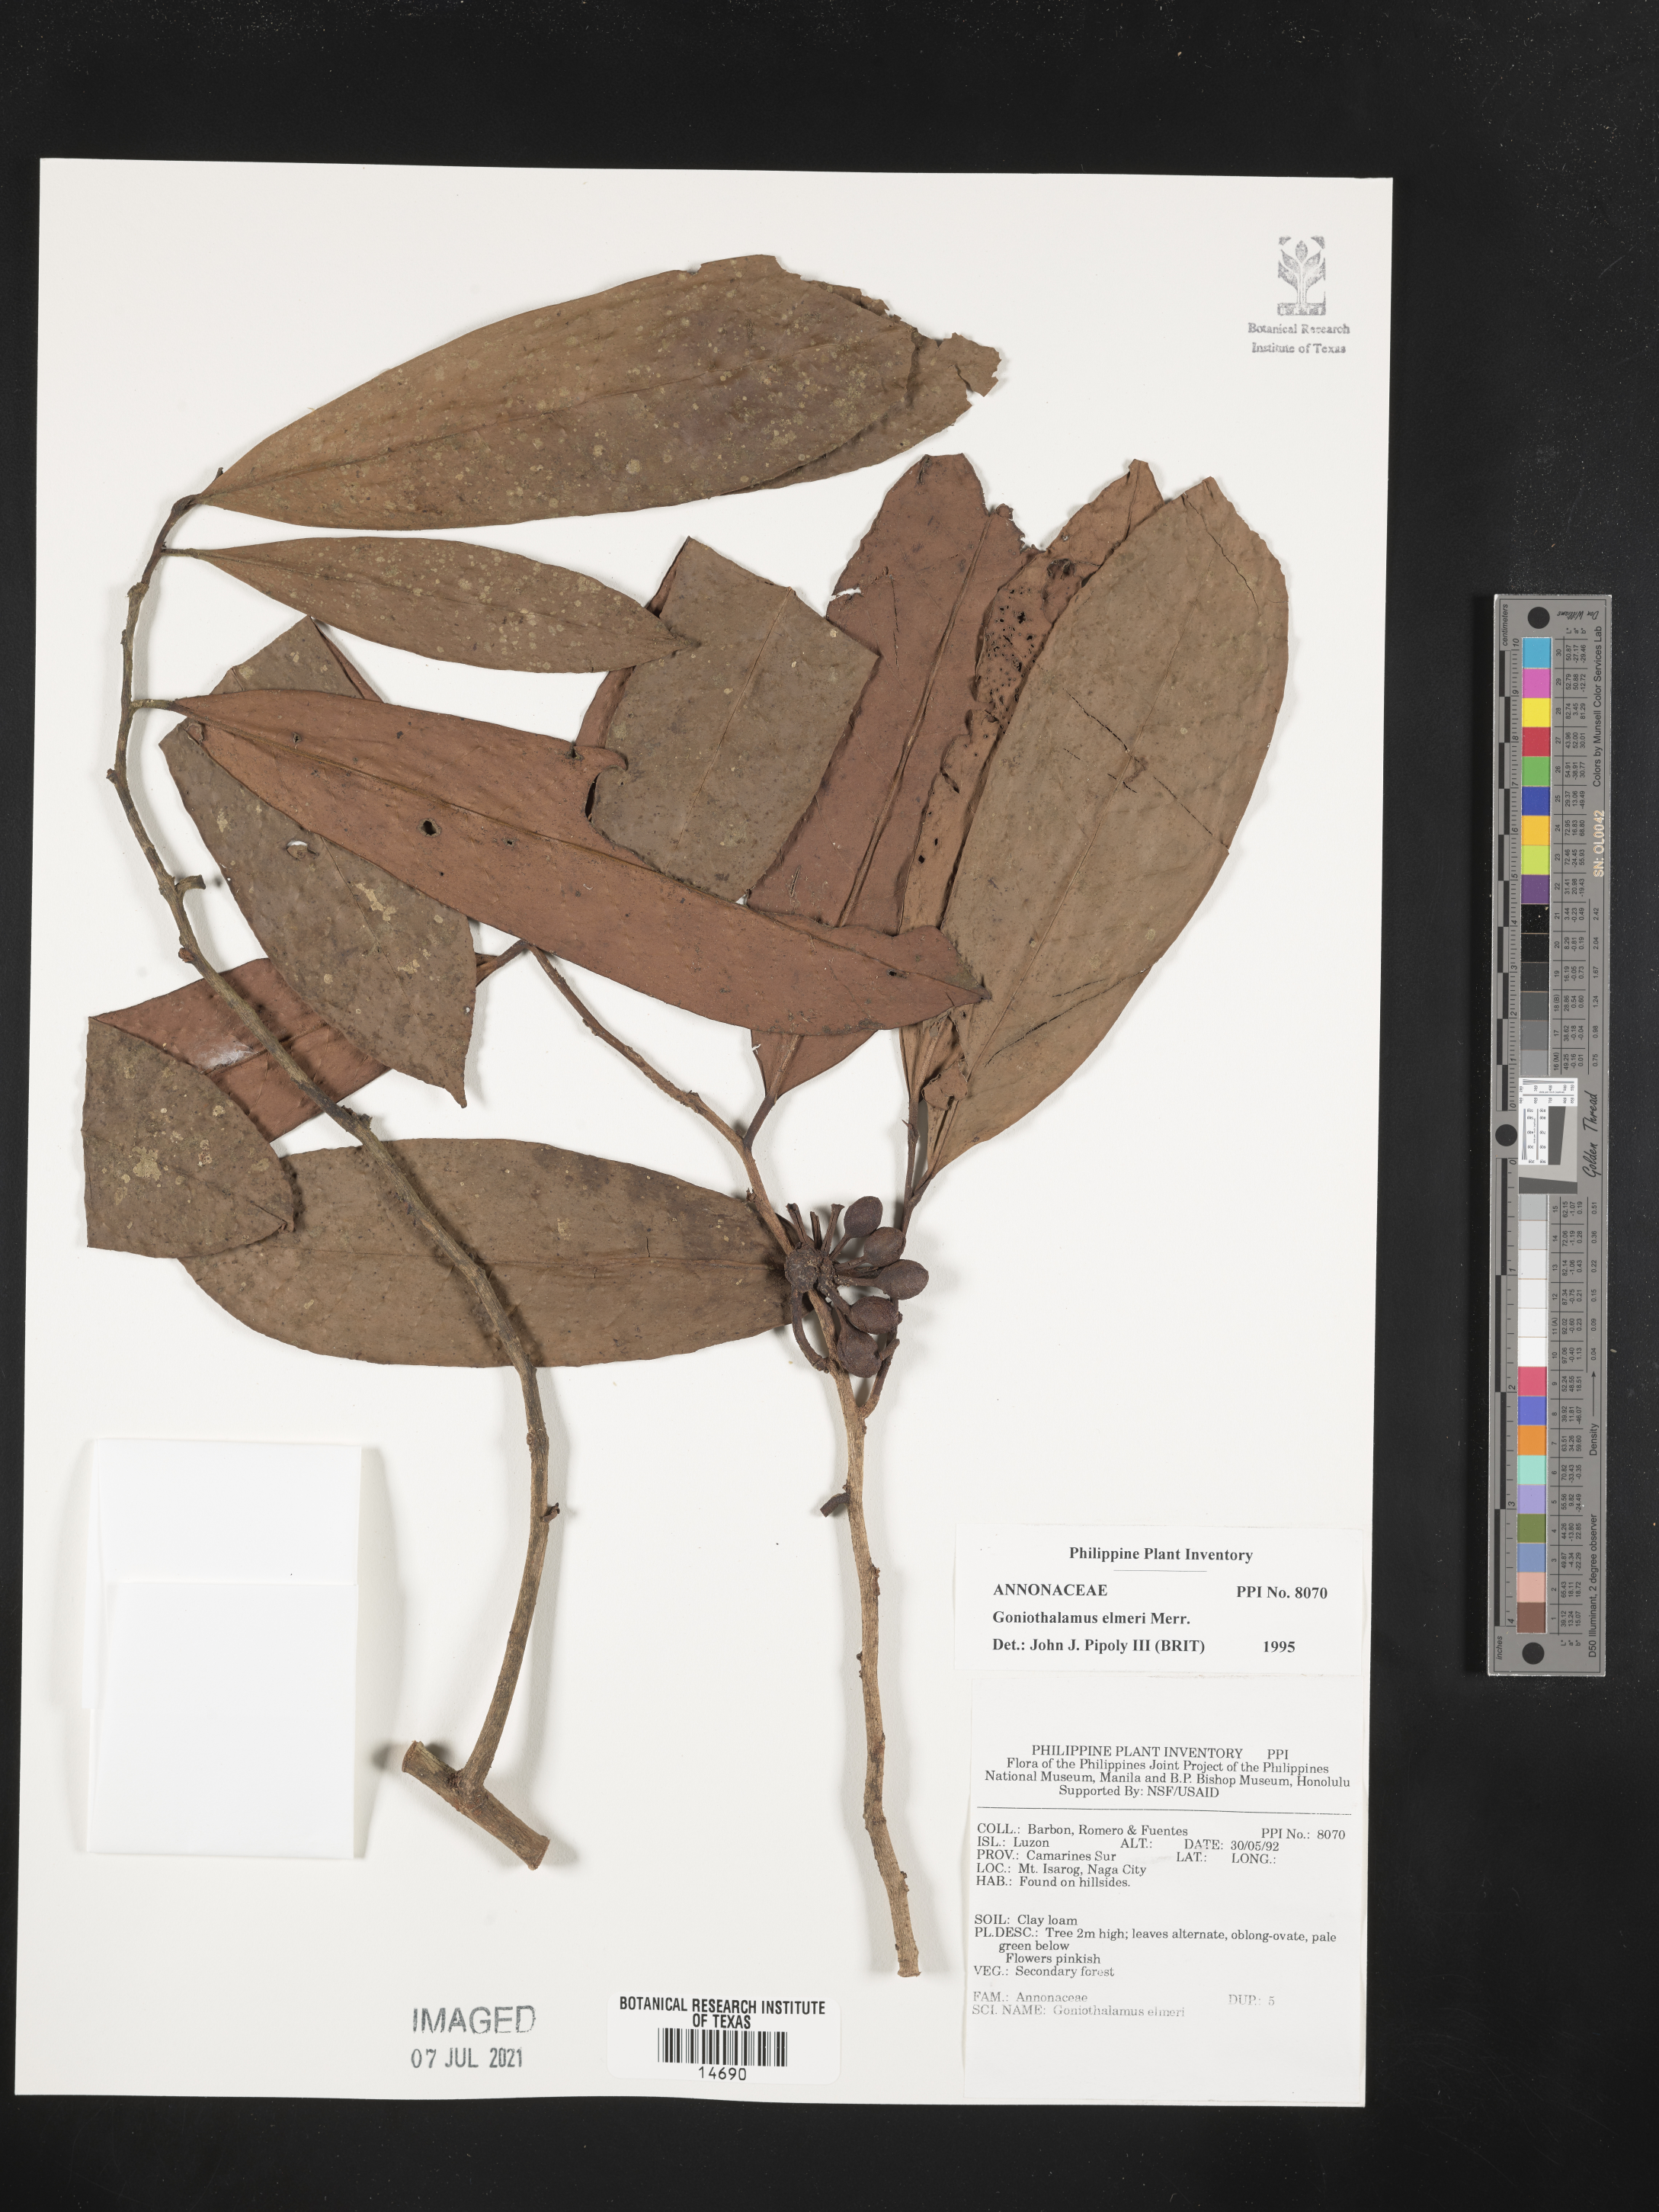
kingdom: Plantae
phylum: Tracheophyta
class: Magnoliopsida
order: Magnoliales
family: Annonaceae
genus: Goniothalamus
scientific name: Goniothalamus elmeri
